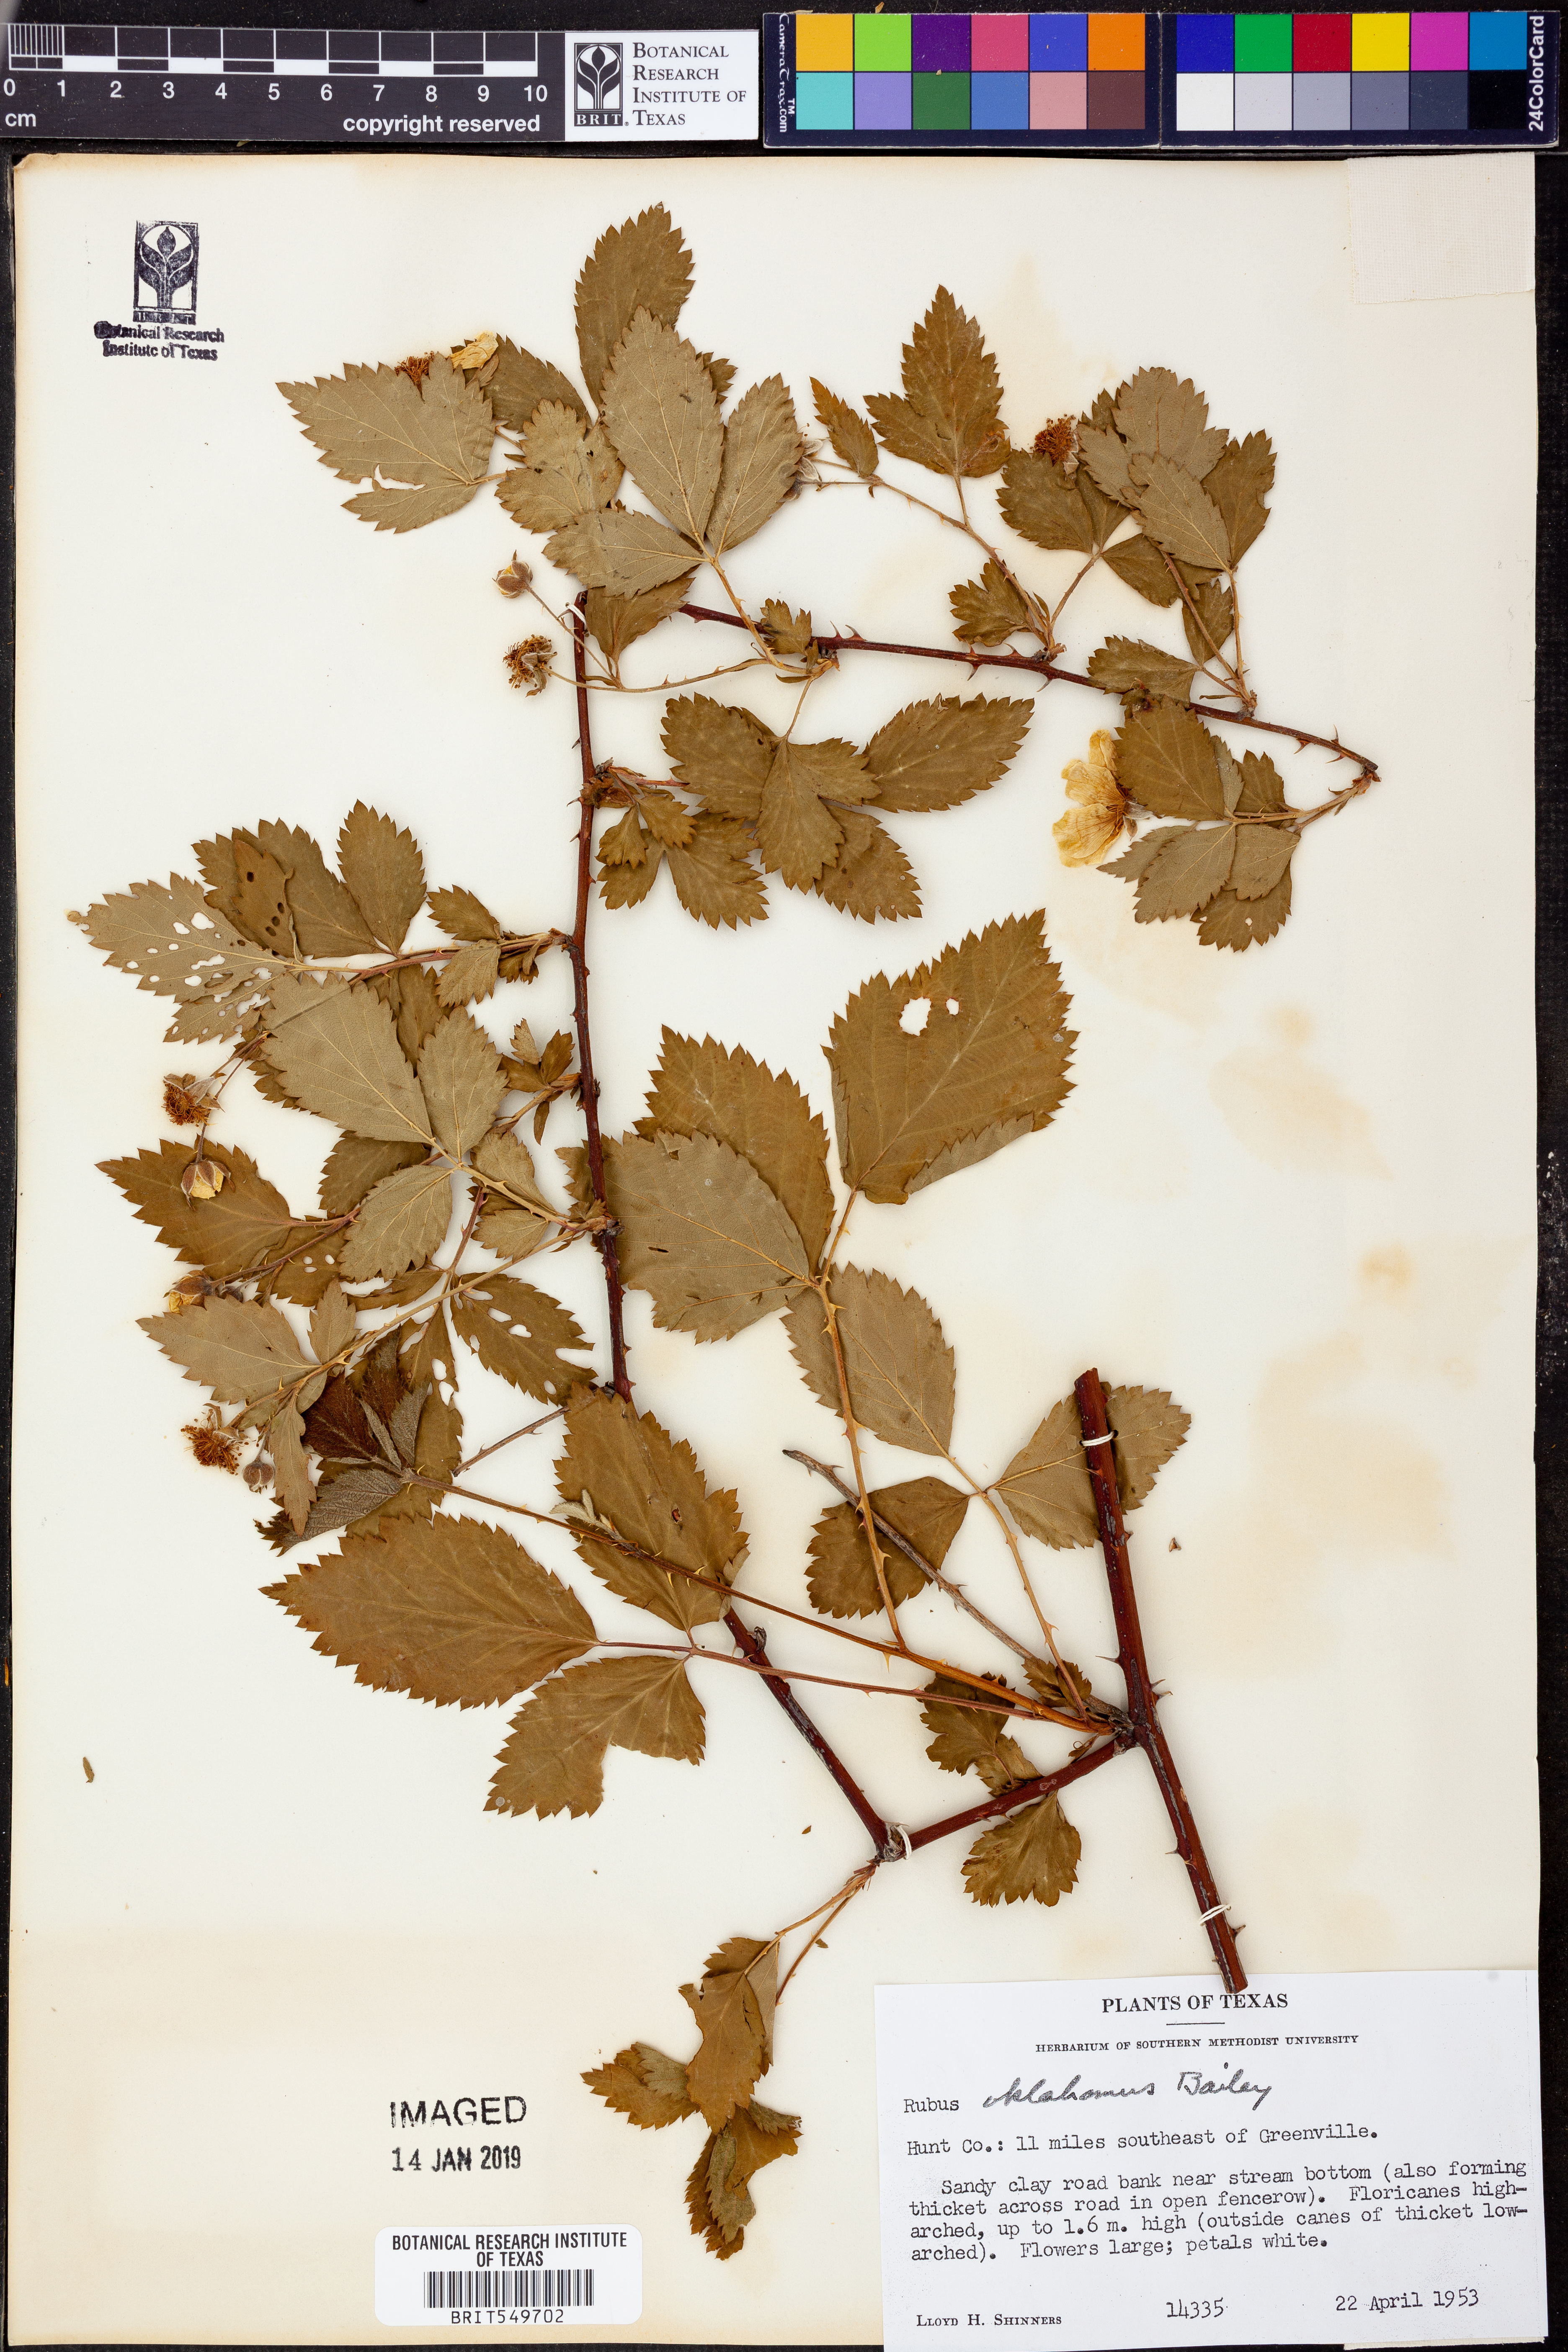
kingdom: Plantae
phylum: Tracheophyta
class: Magnoliopsida
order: Rosales
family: Rosaceae
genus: Rubus
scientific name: Rubus oklahomus
